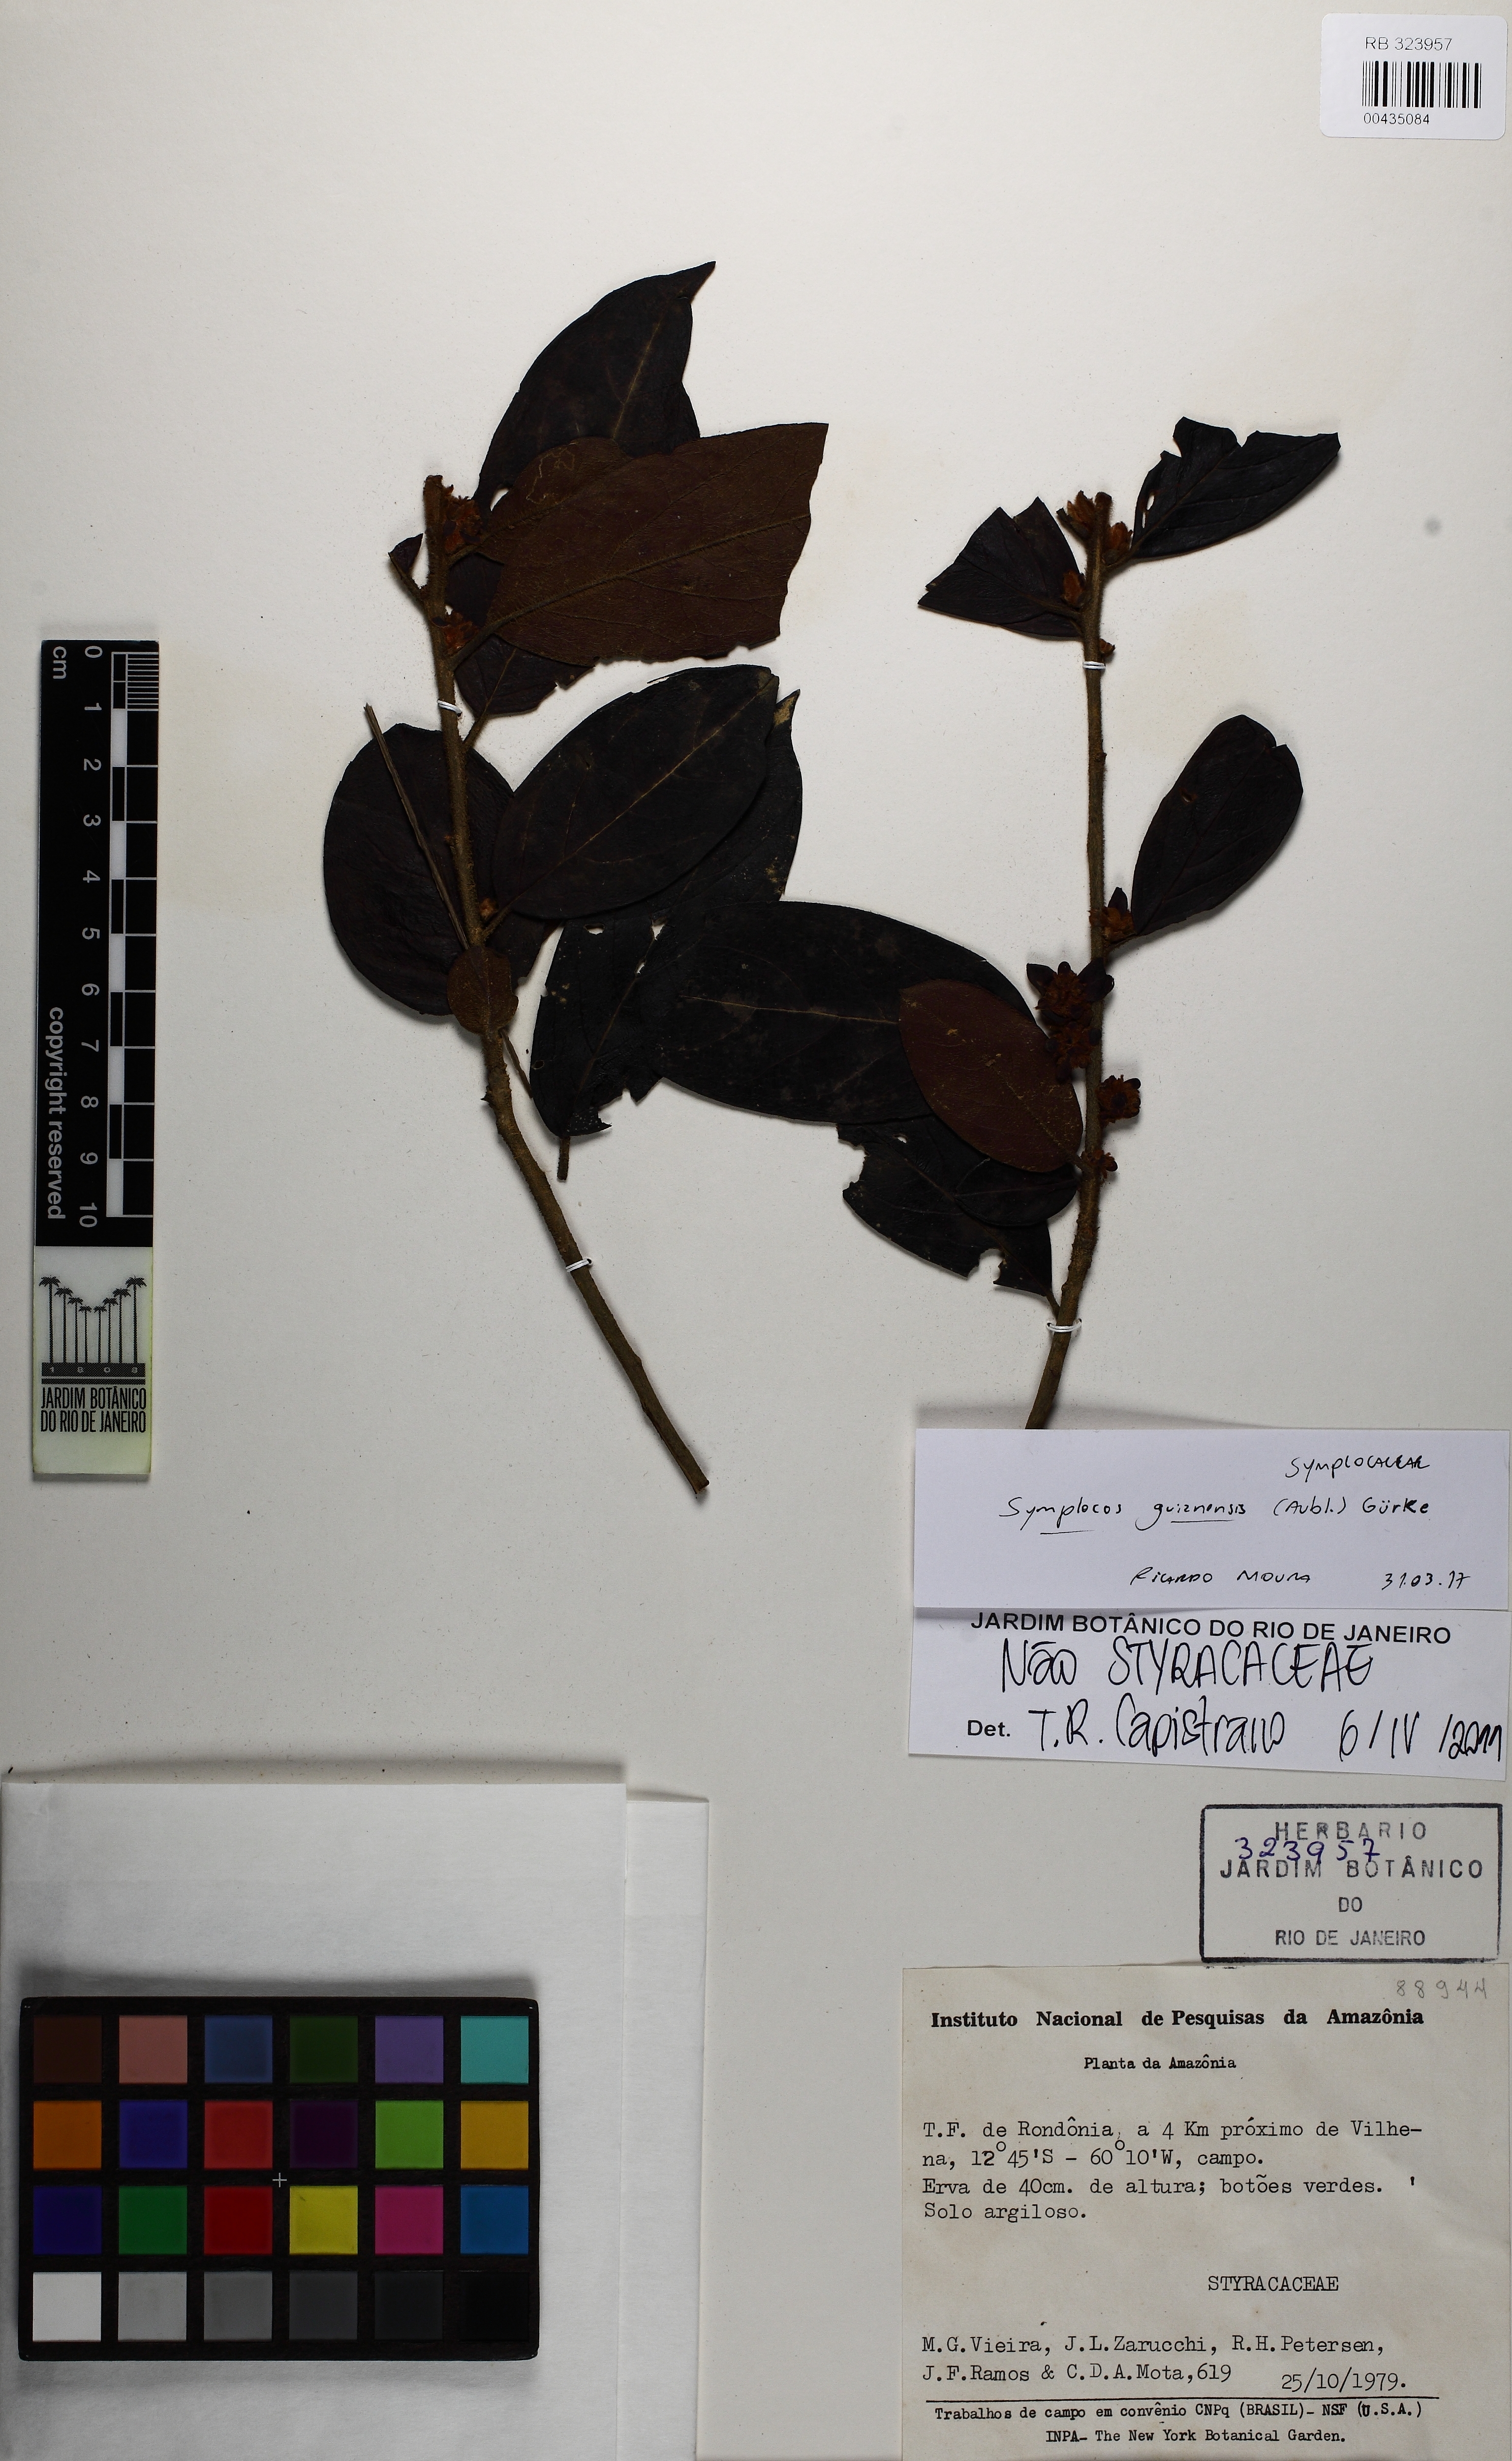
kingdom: Plantae
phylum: Tracheophyta
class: Magnoliopsida
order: Ericales
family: Symplocaceae
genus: Symplocos
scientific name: Symplocos guianensis
